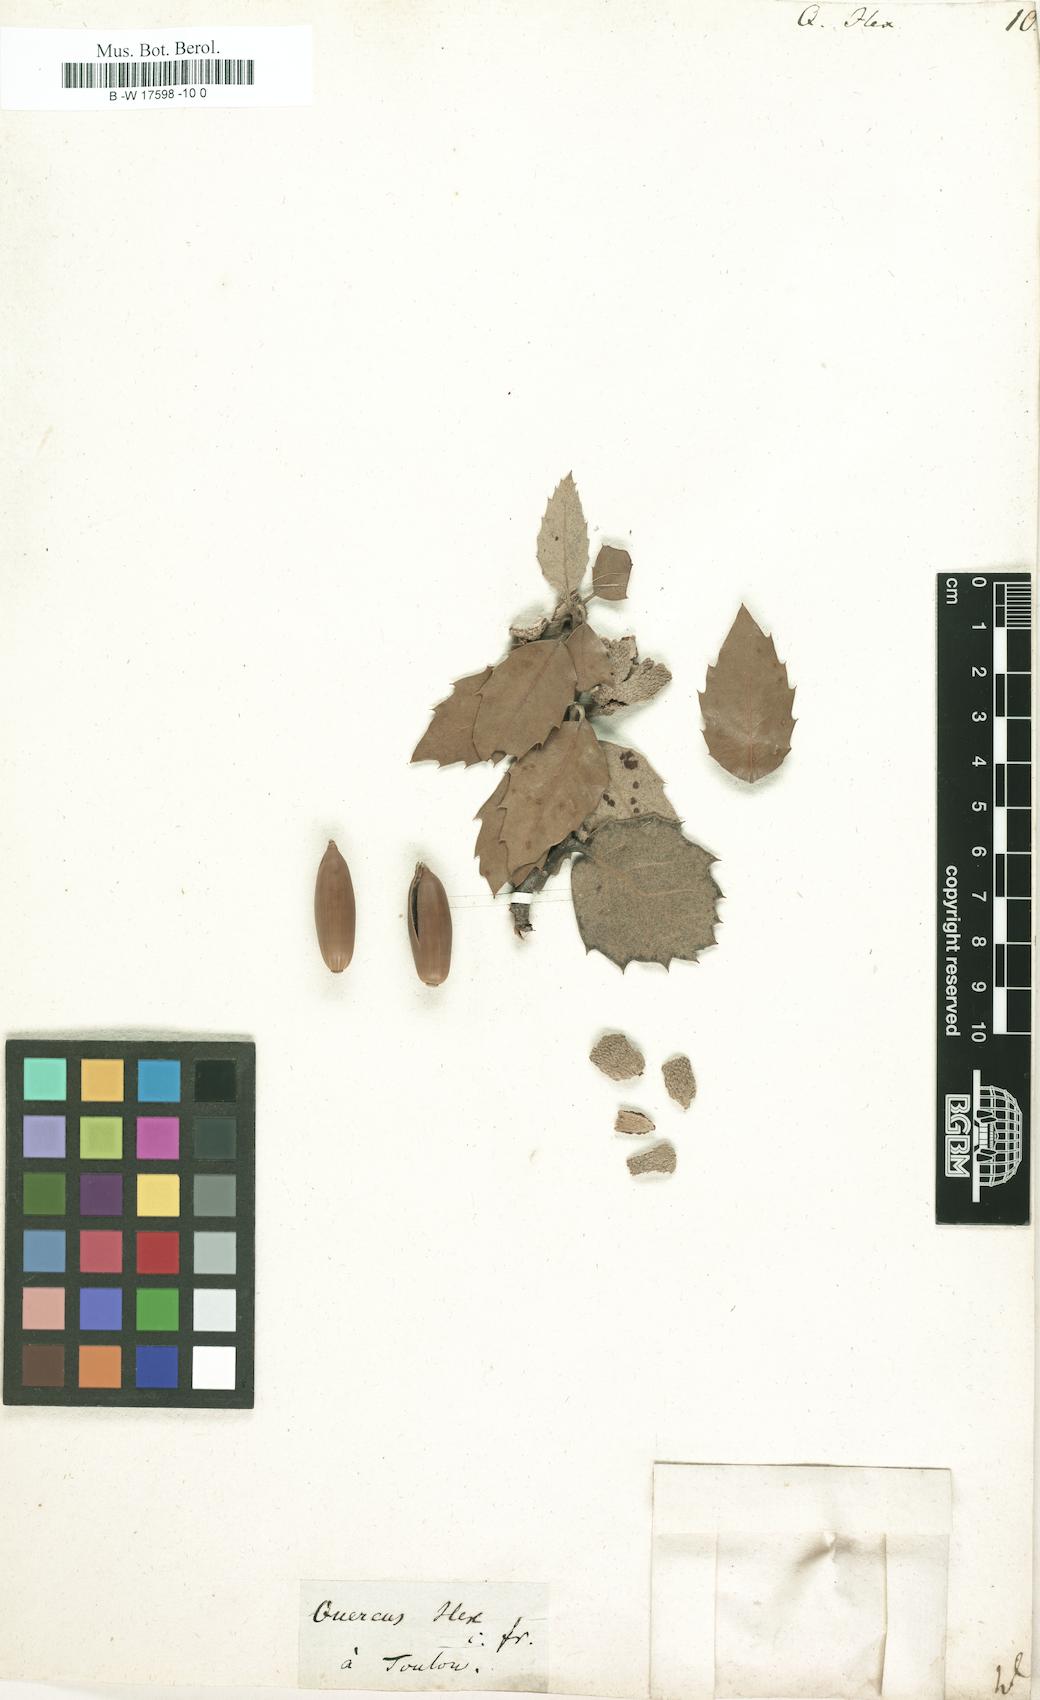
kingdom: Plantae
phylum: Tracheophyta
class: Magnoliopsida
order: Fagales
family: Fagaceae
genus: Quercus
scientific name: Quercus ilex
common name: Evergreen oak
